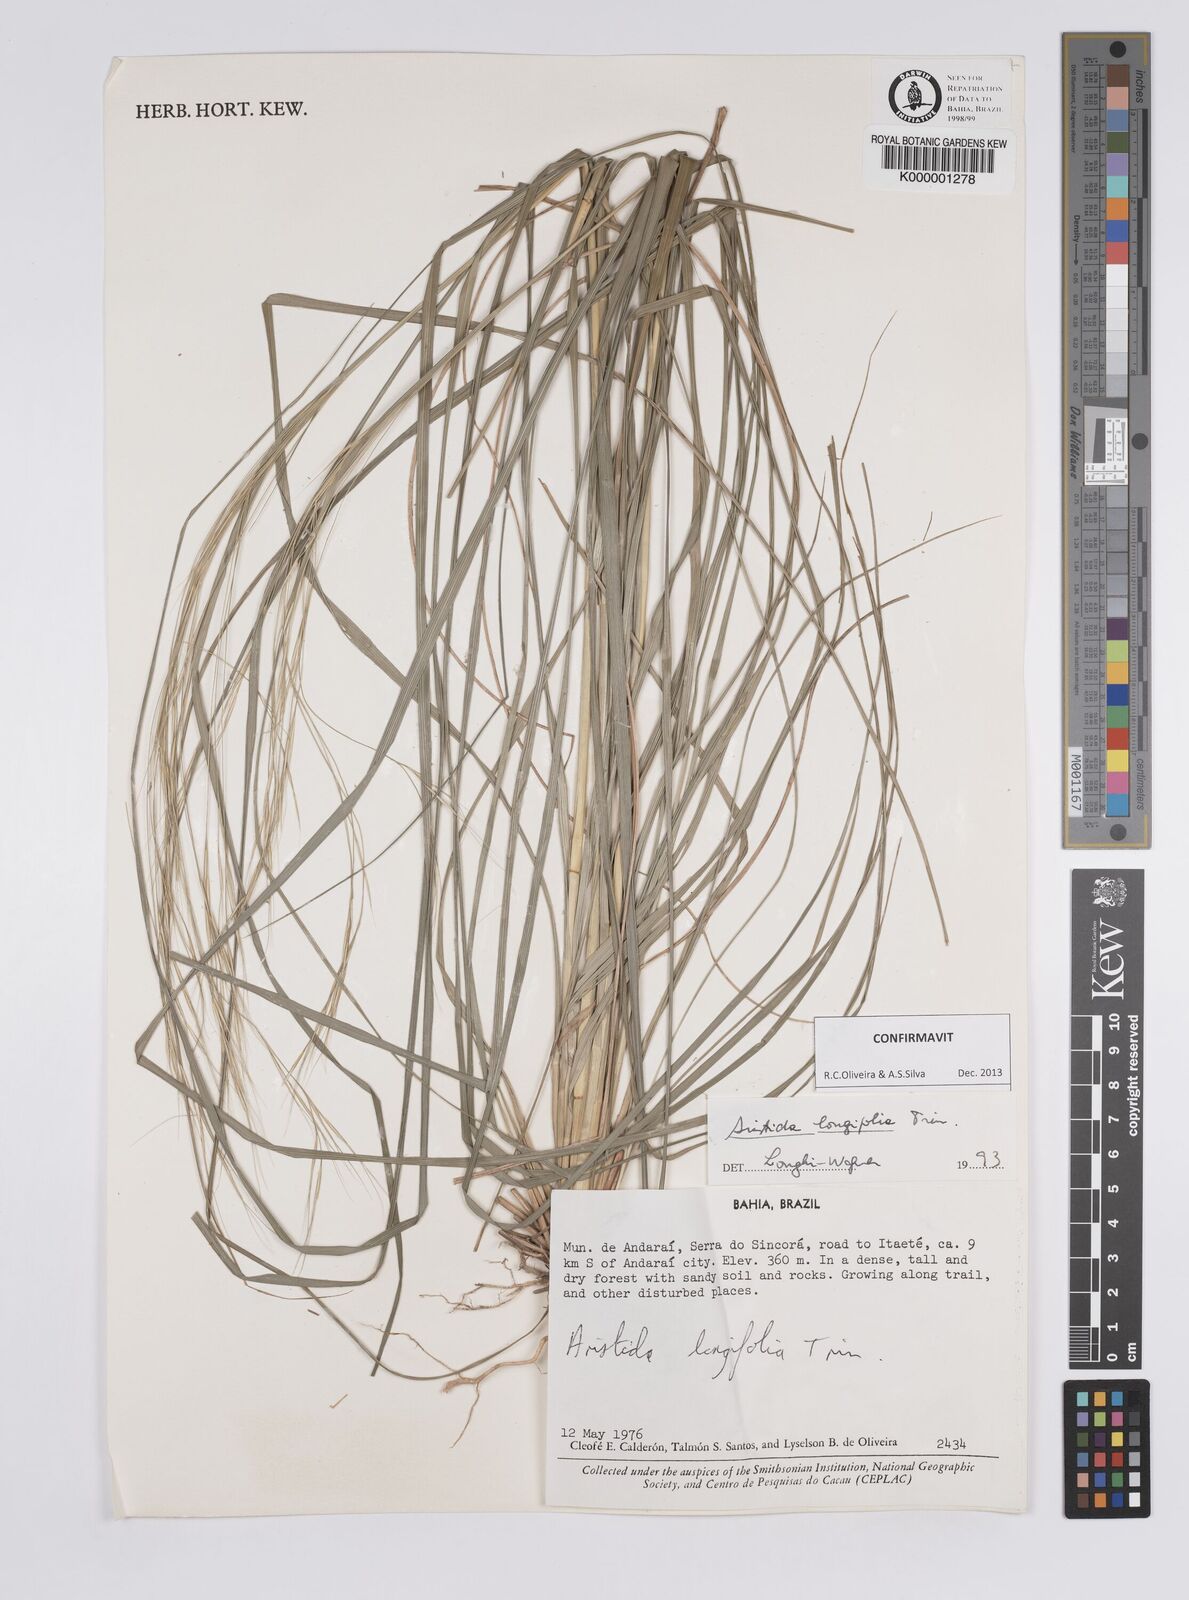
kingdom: Plantae
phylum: Tracheophyta
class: Liliopsida
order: Poales
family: Poaceae
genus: Aristida
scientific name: Aristida longifolia
